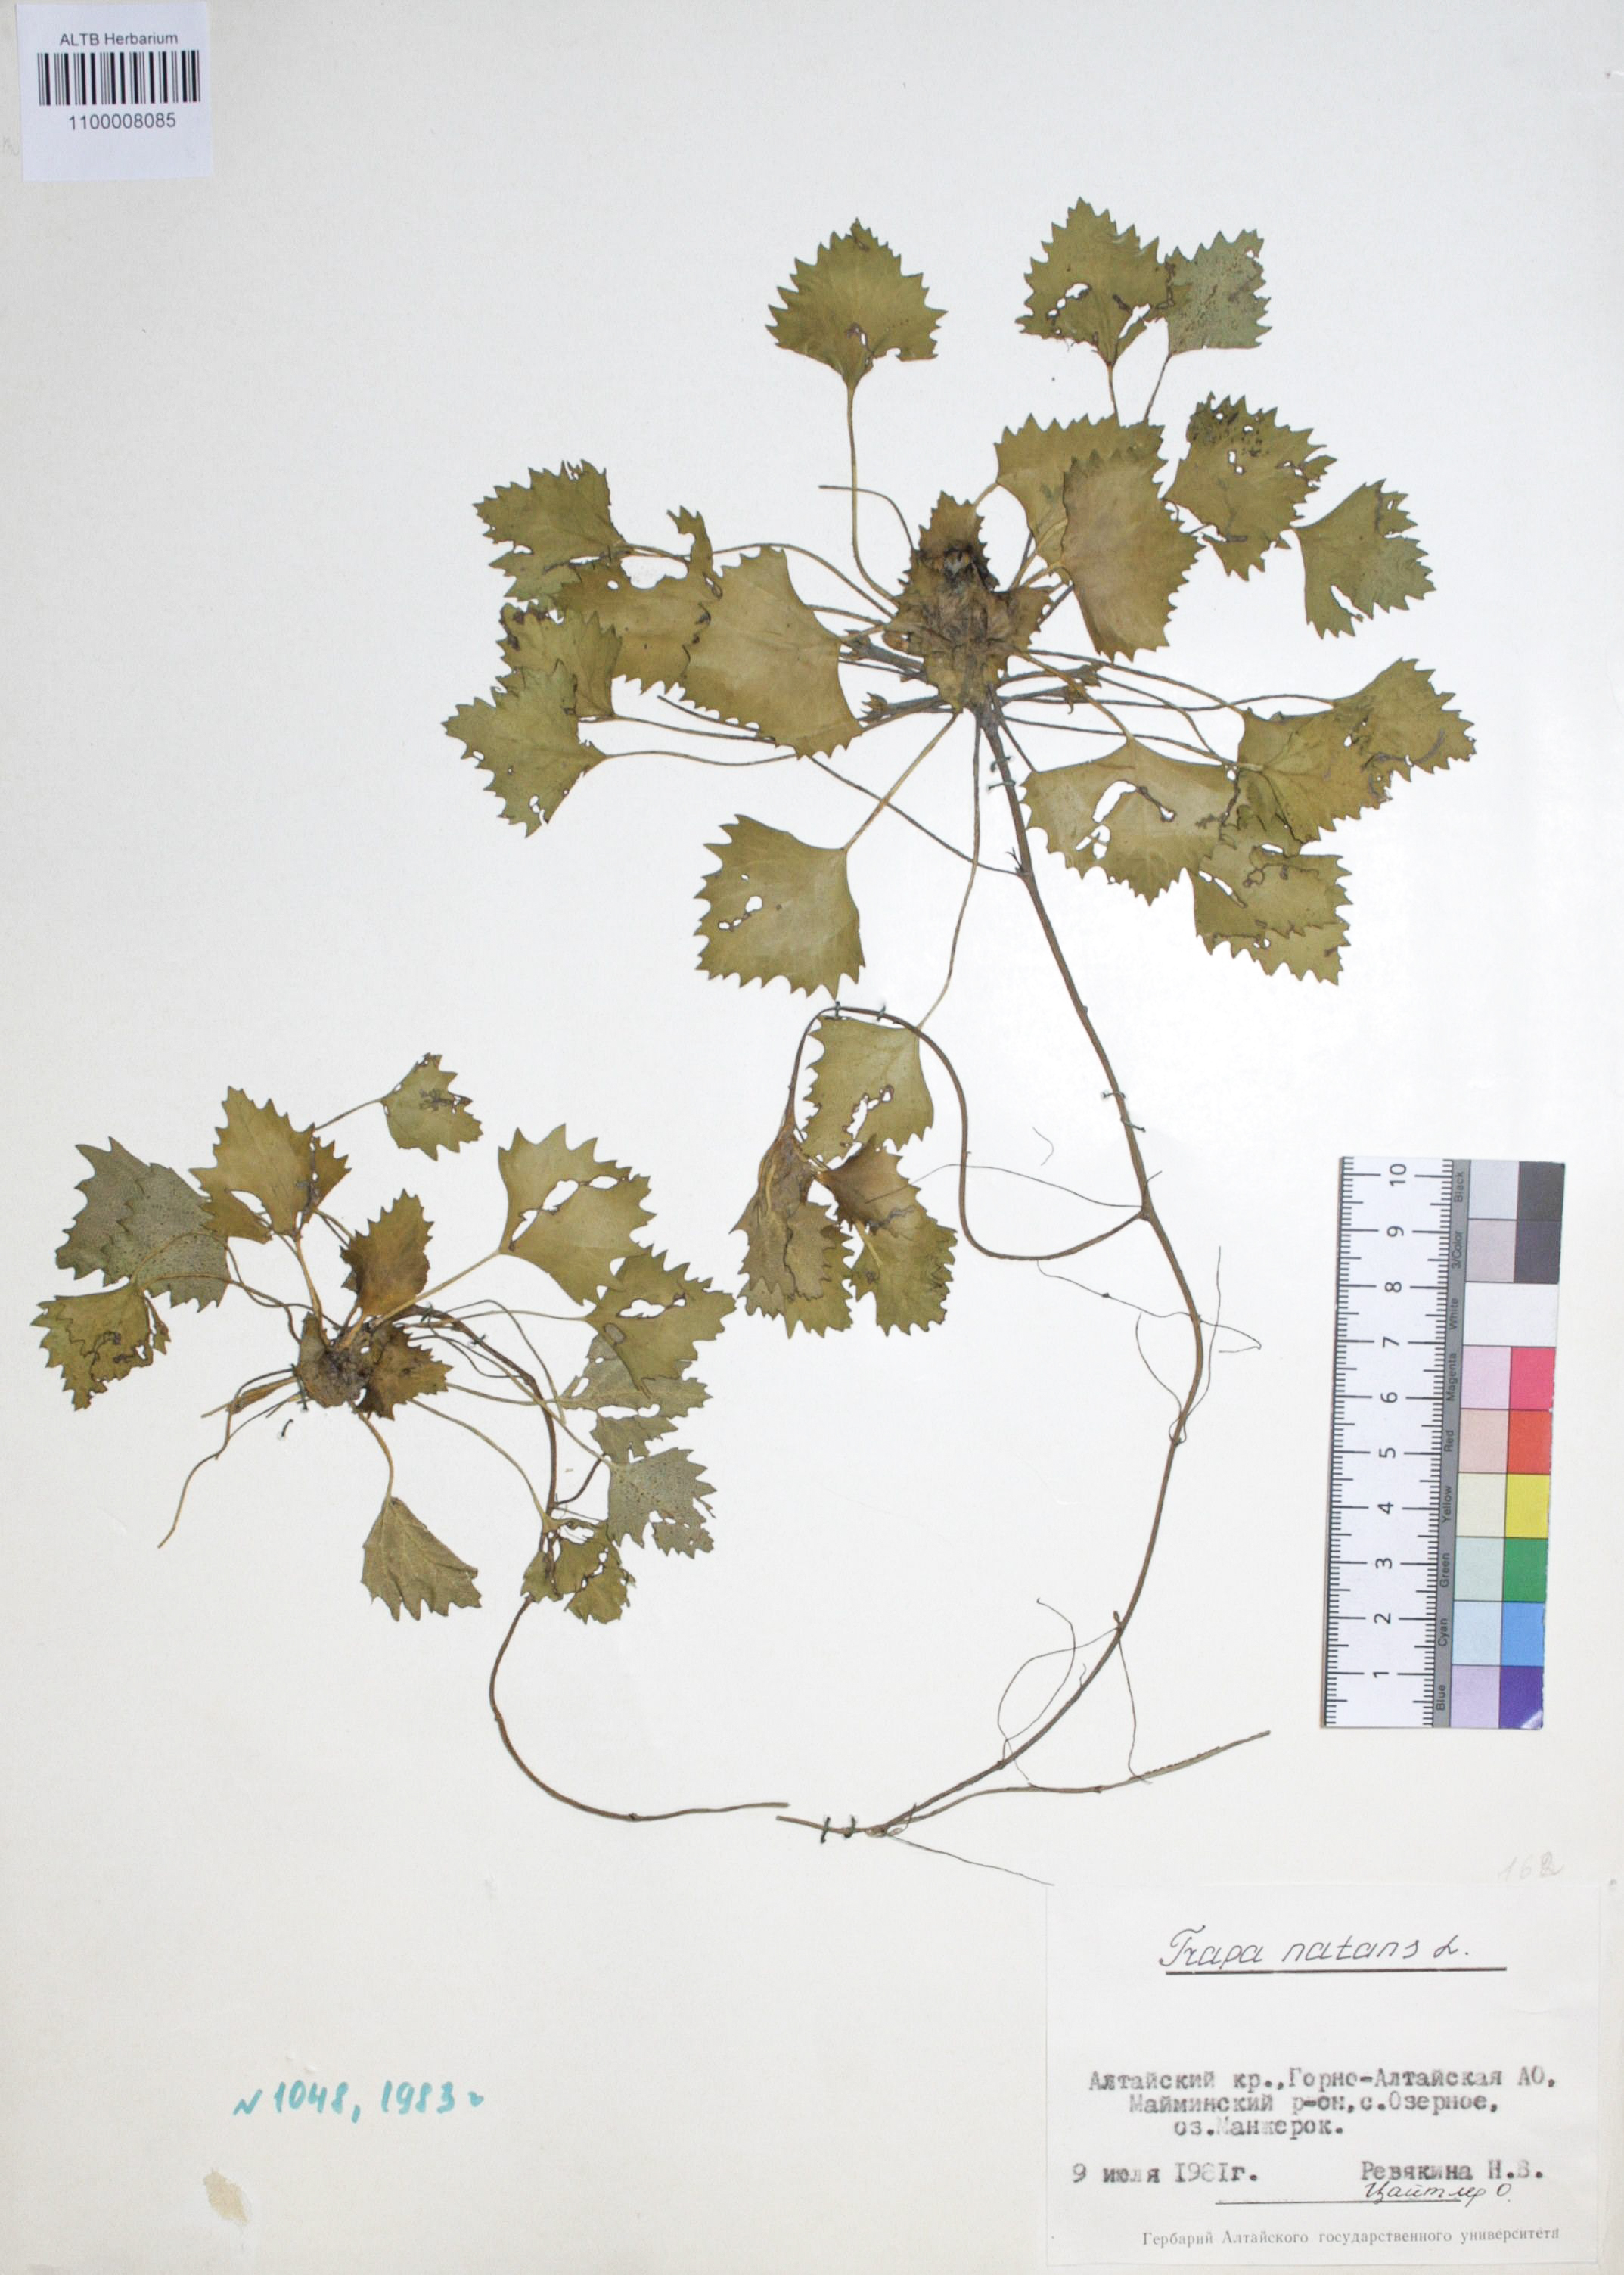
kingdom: Plantae
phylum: Tracheophyta
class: Magnoliopsida
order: Myrtales
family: Lythraceae
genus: Trapa
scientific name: Trapa natans
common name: Water chestnut
